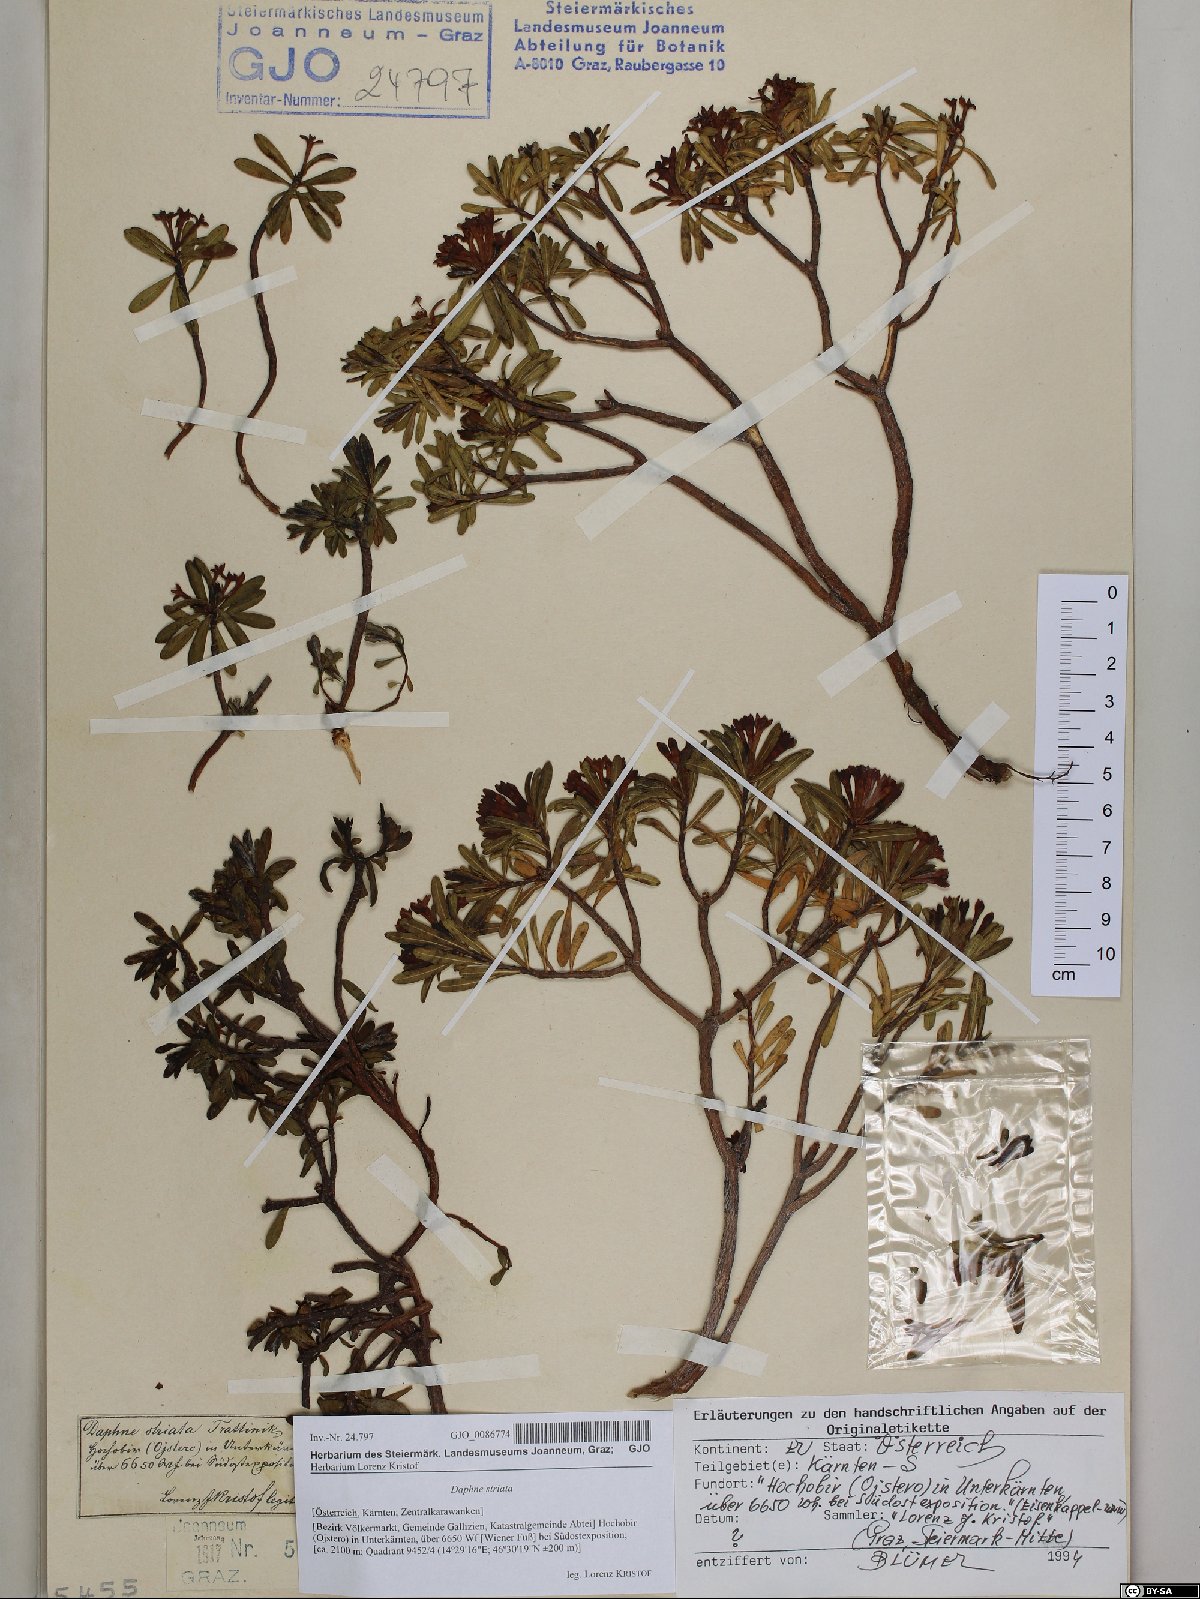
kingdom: Plantae
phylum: Tracheophyta
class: Magnoliopsida
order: Malvales
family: Thymelaeaceae
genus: Daphne
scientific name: Daphne striata
